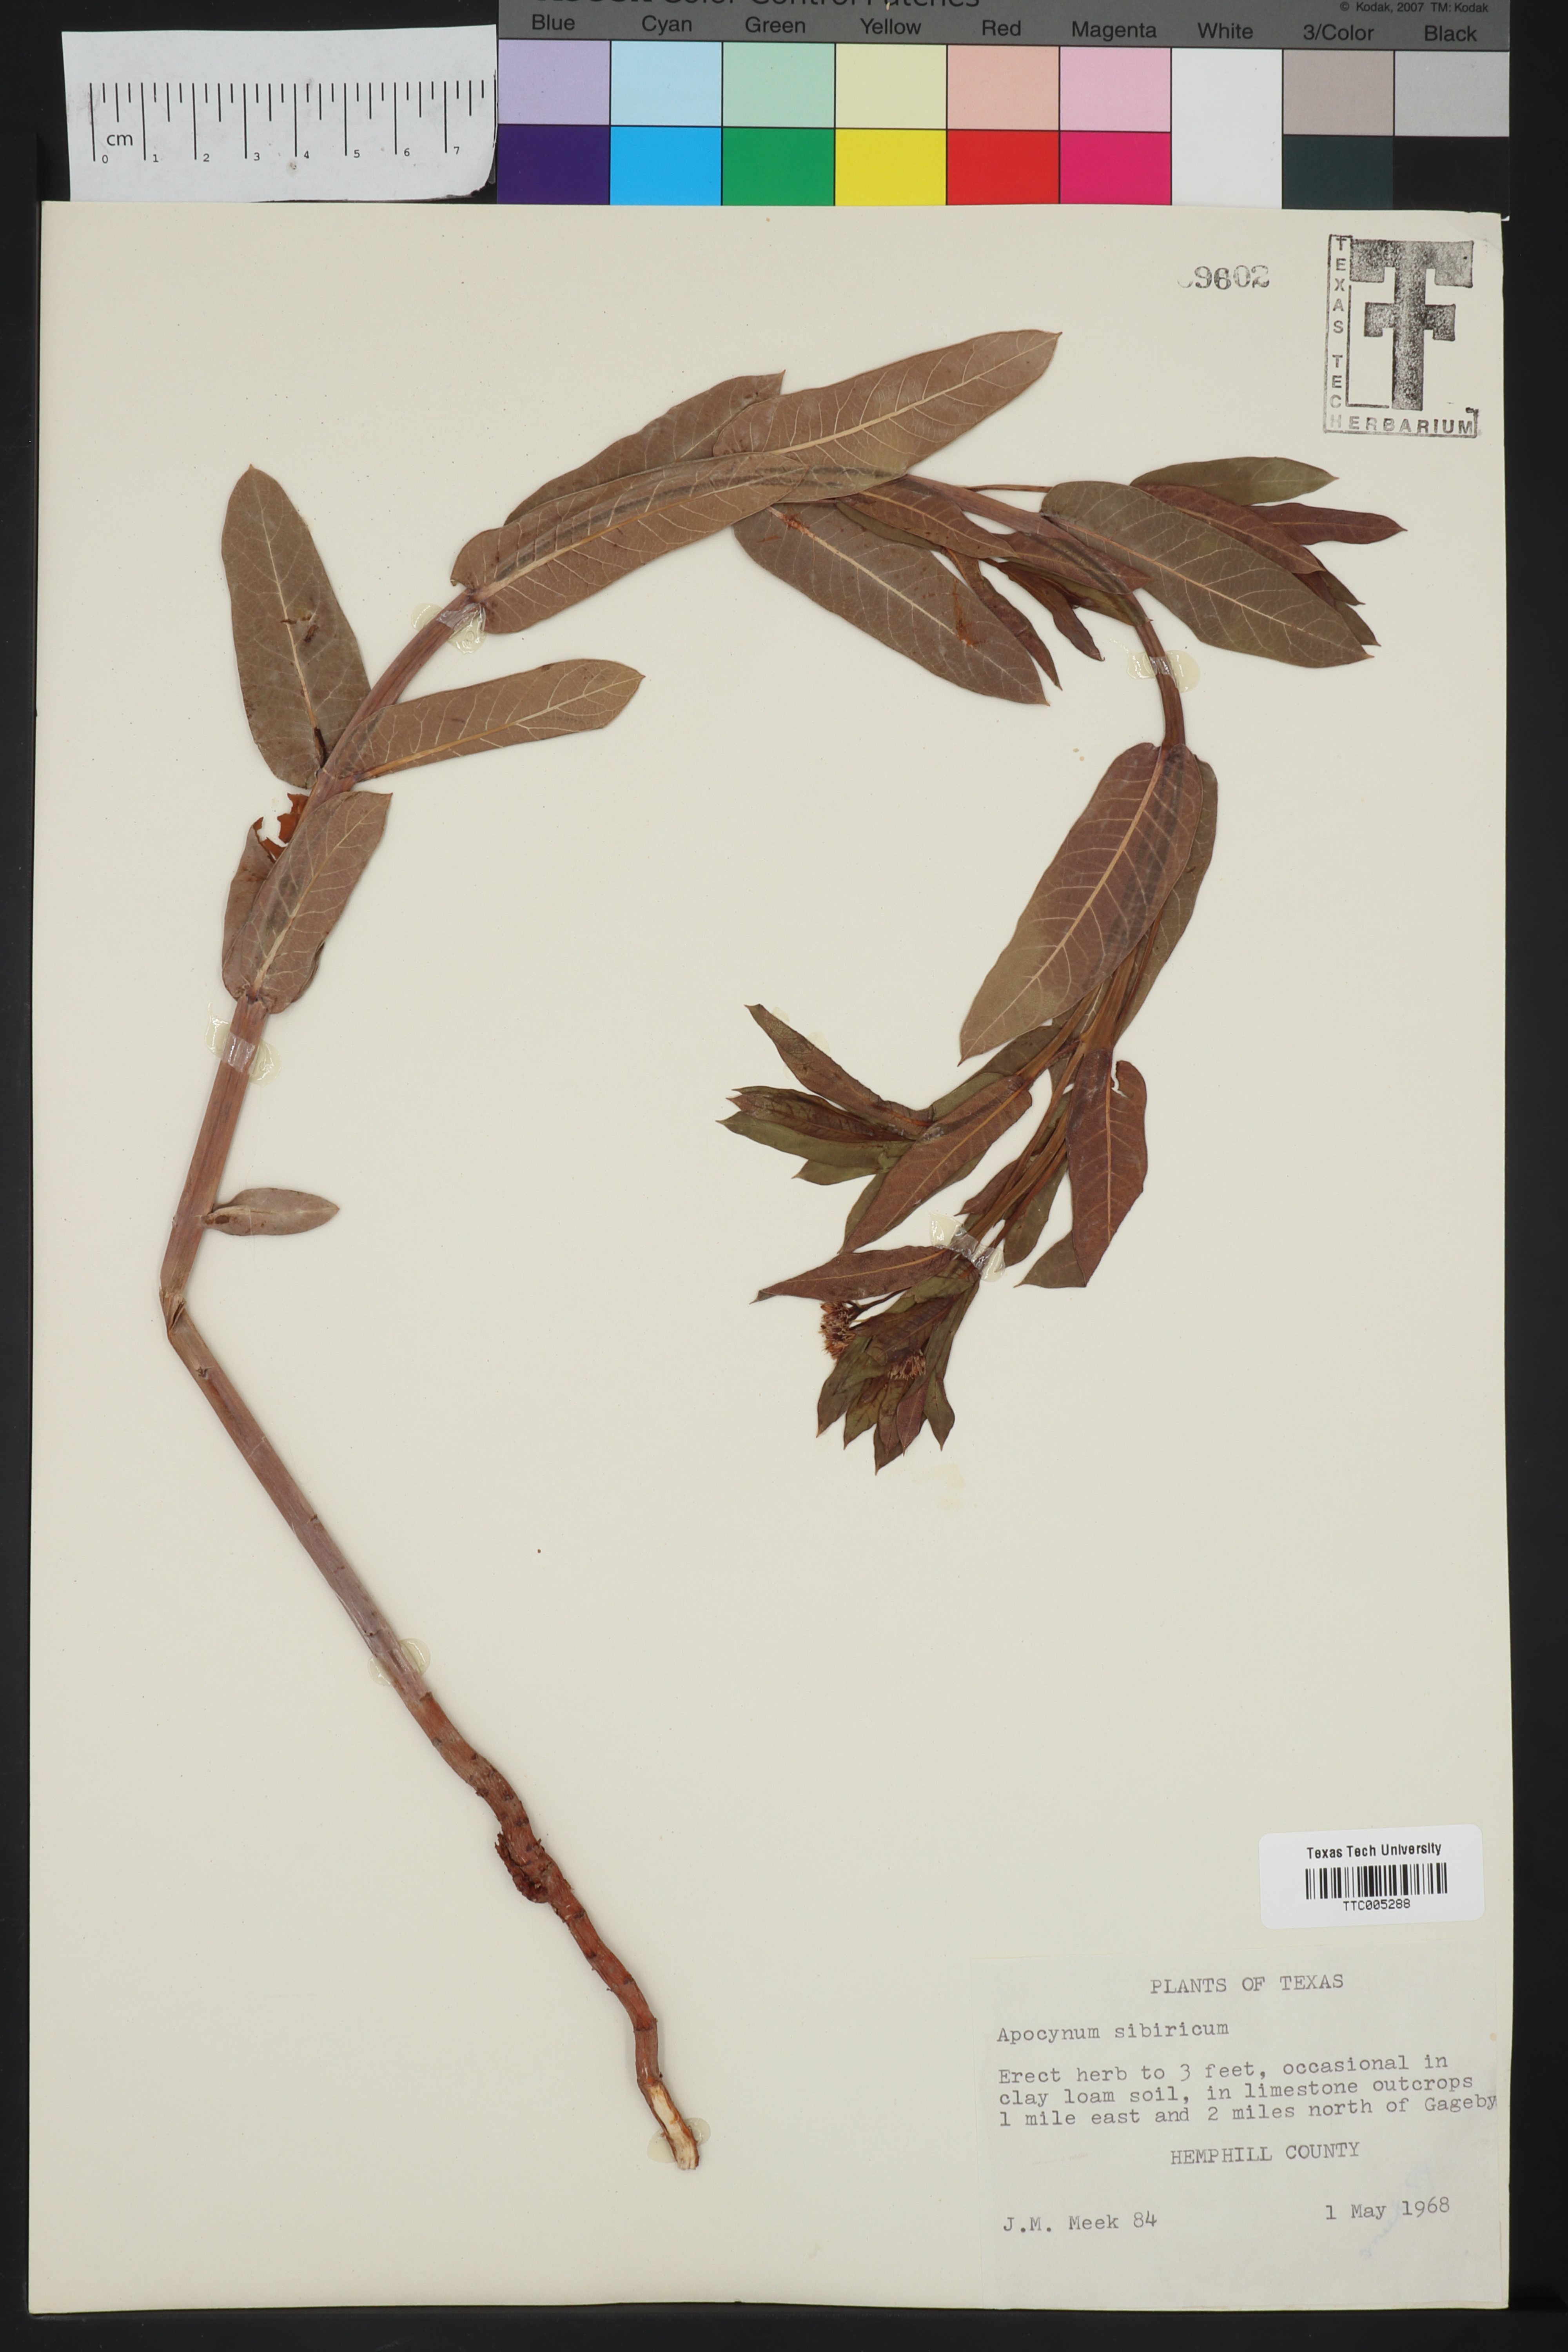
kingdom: Plantae
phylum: Tracheophyta
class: Magnoliopsida
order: Gentianales
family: Apocynaceae
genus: Apocynum
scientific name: Apocynum cannabinum
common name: Hemp dogbane
